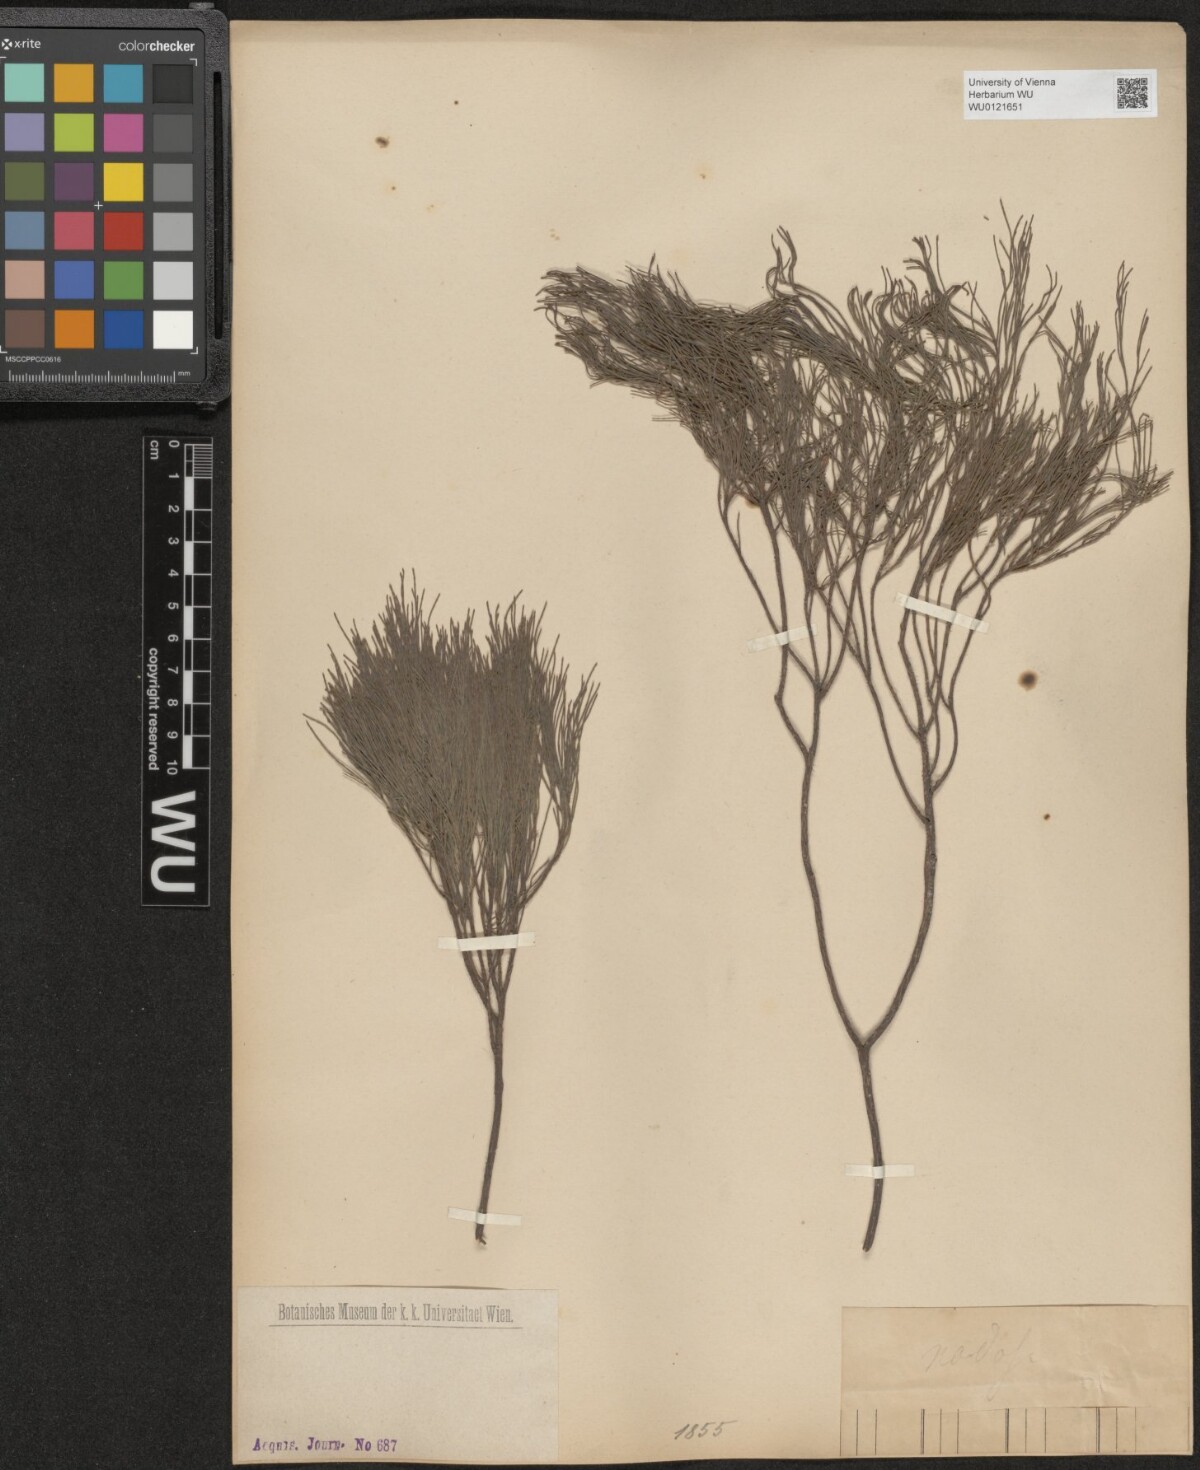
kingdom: Plantae
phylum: Tracheophyta
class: Magnoliopsida
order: Fagales
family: Casuarinaceae
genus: Casuarina
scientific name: Casuarina
